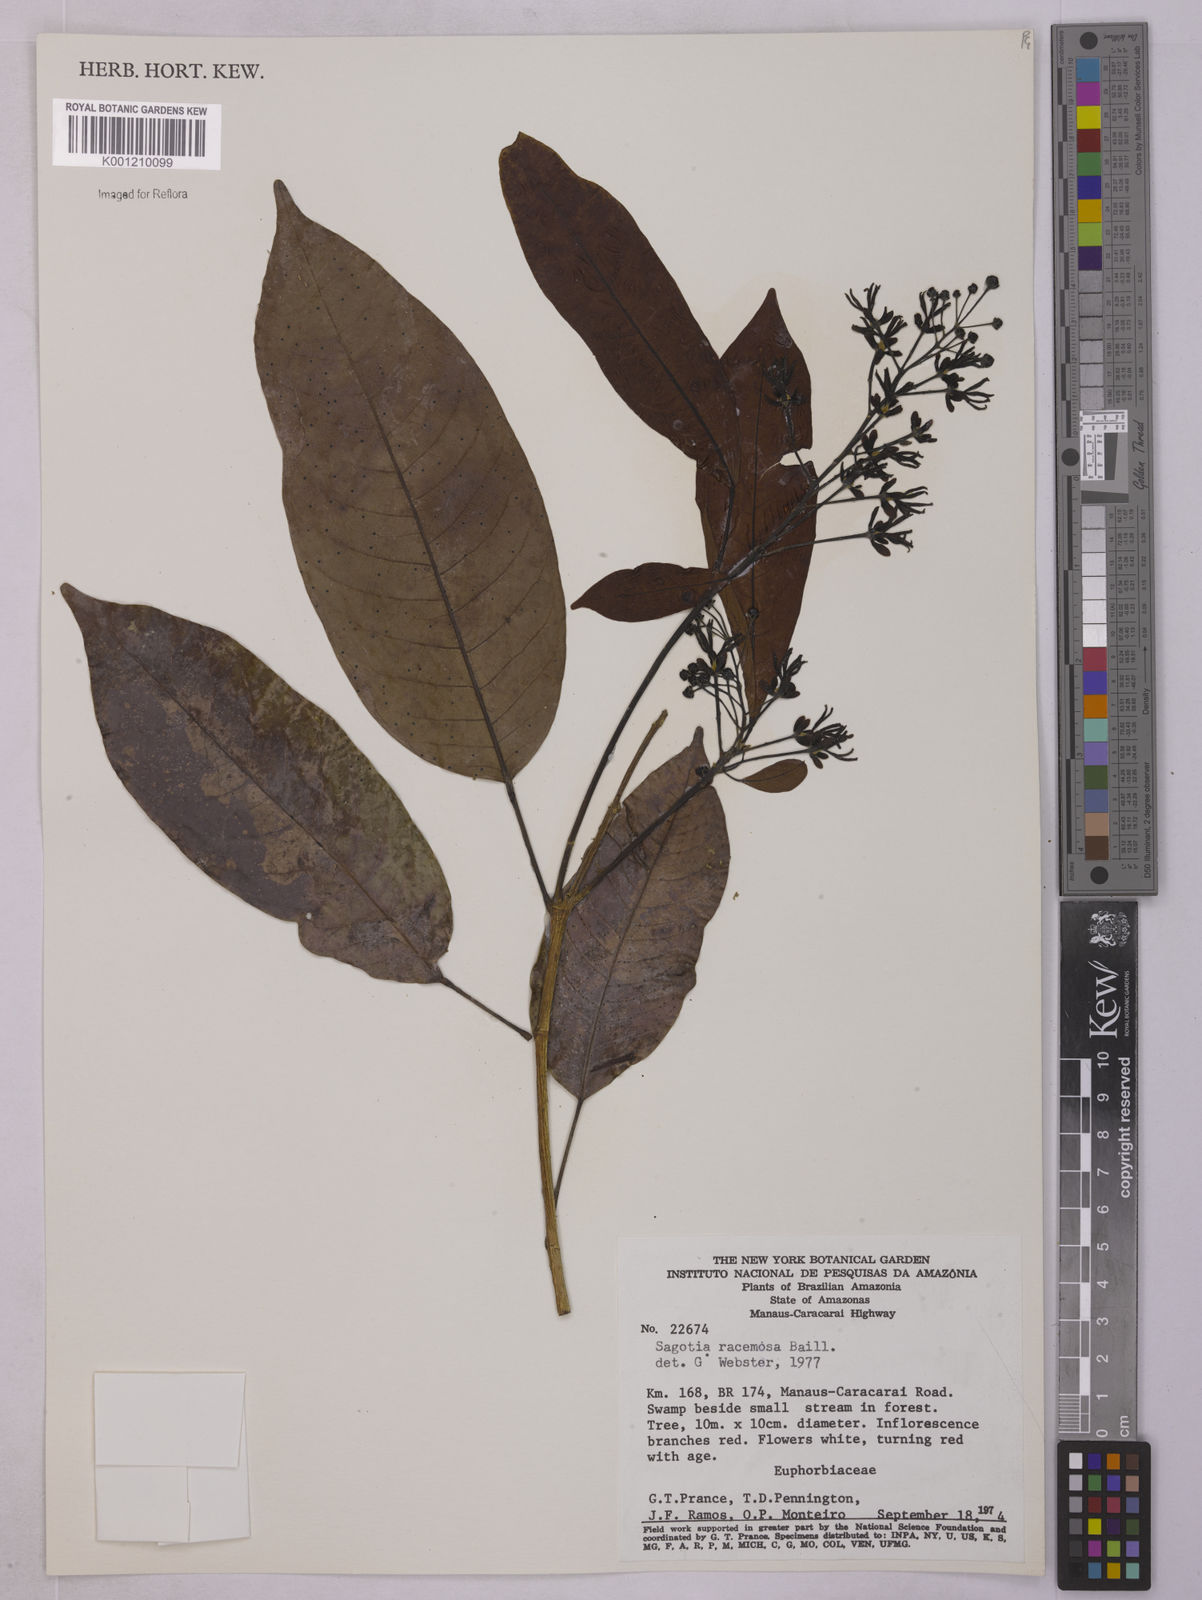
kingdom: Plantae
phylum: Tracheophyta
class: Magnoliopsida
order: Malpighiales
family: Euphorbiaceae
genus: Sagotia
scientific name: Sagotia racemosa
